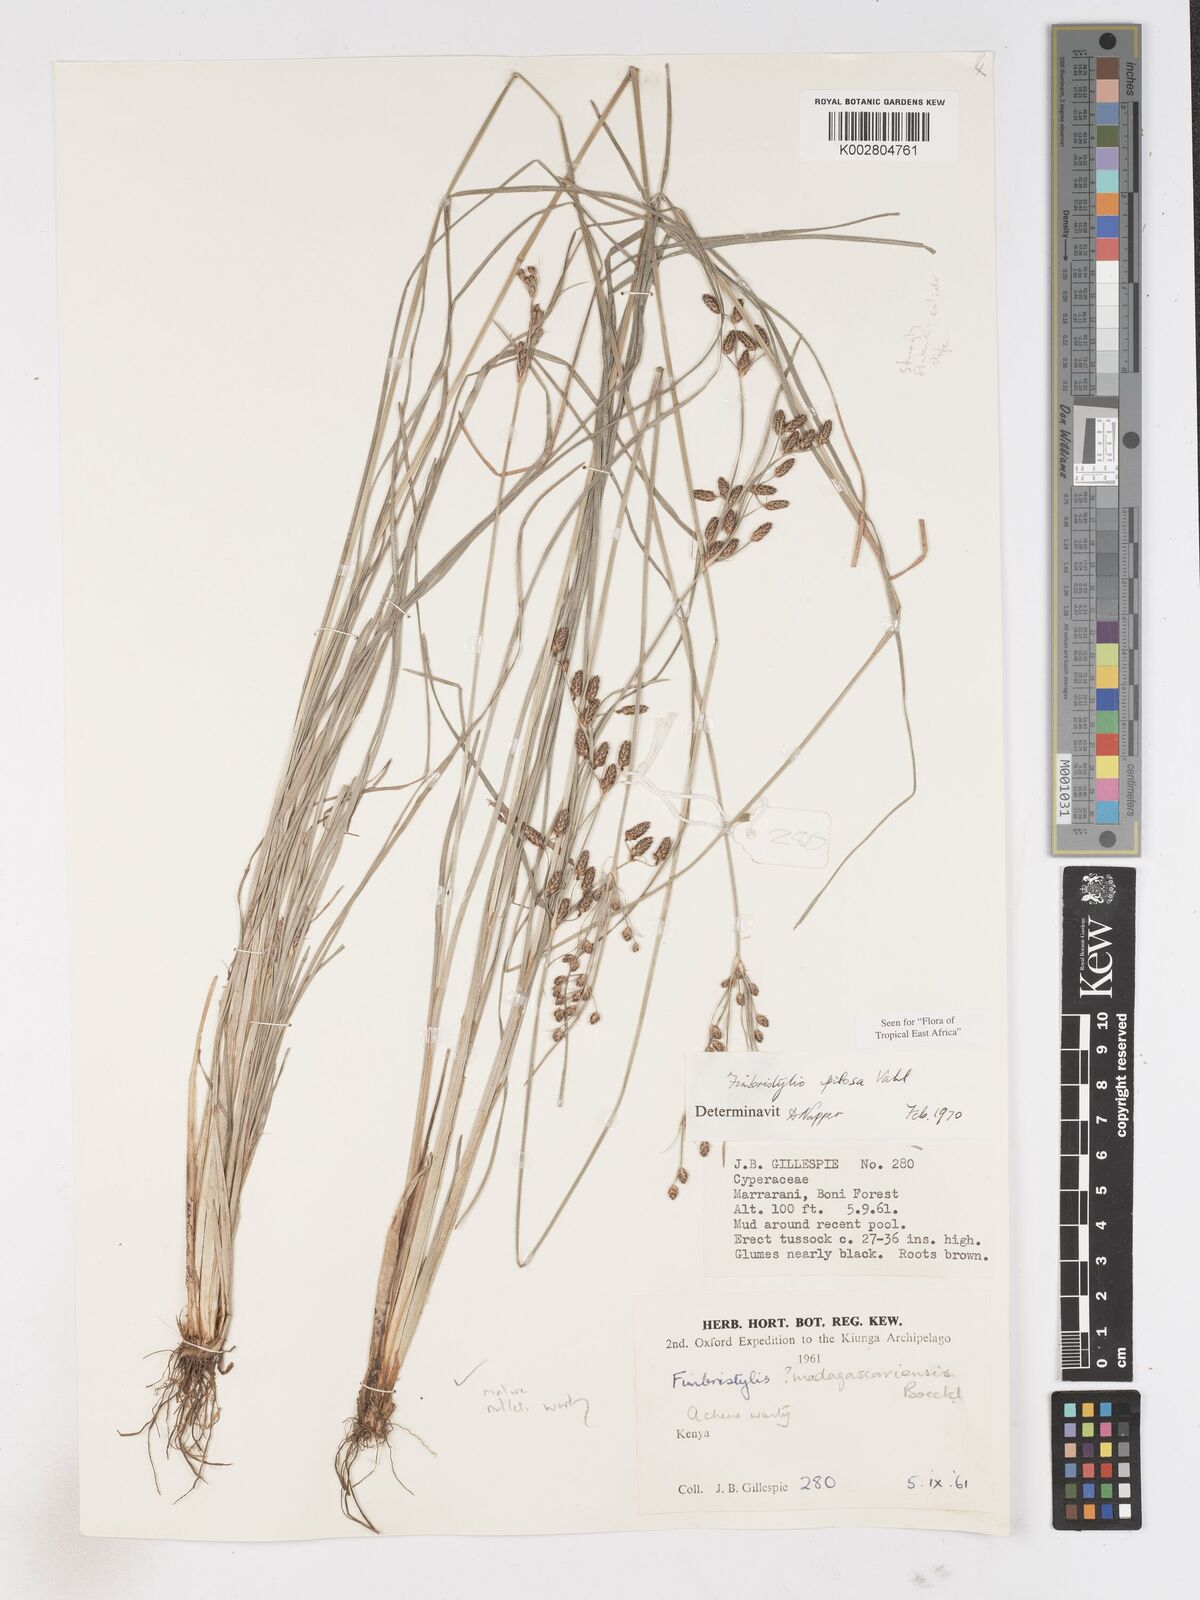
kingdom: Plantae
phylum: Tracheophyta
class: Liliopsida
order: Poales
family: Cyperaceae
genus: Fimbristylis
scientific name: Fimbristylis pilosa
